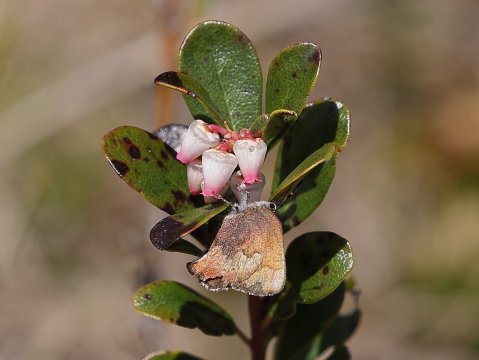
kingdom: Animalia
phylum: Arthropoda
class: Insecta
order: Lepidoptera
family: Lycaenidae
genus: Incisalia
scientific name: Incisalia irioides
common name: Brown Elfin
